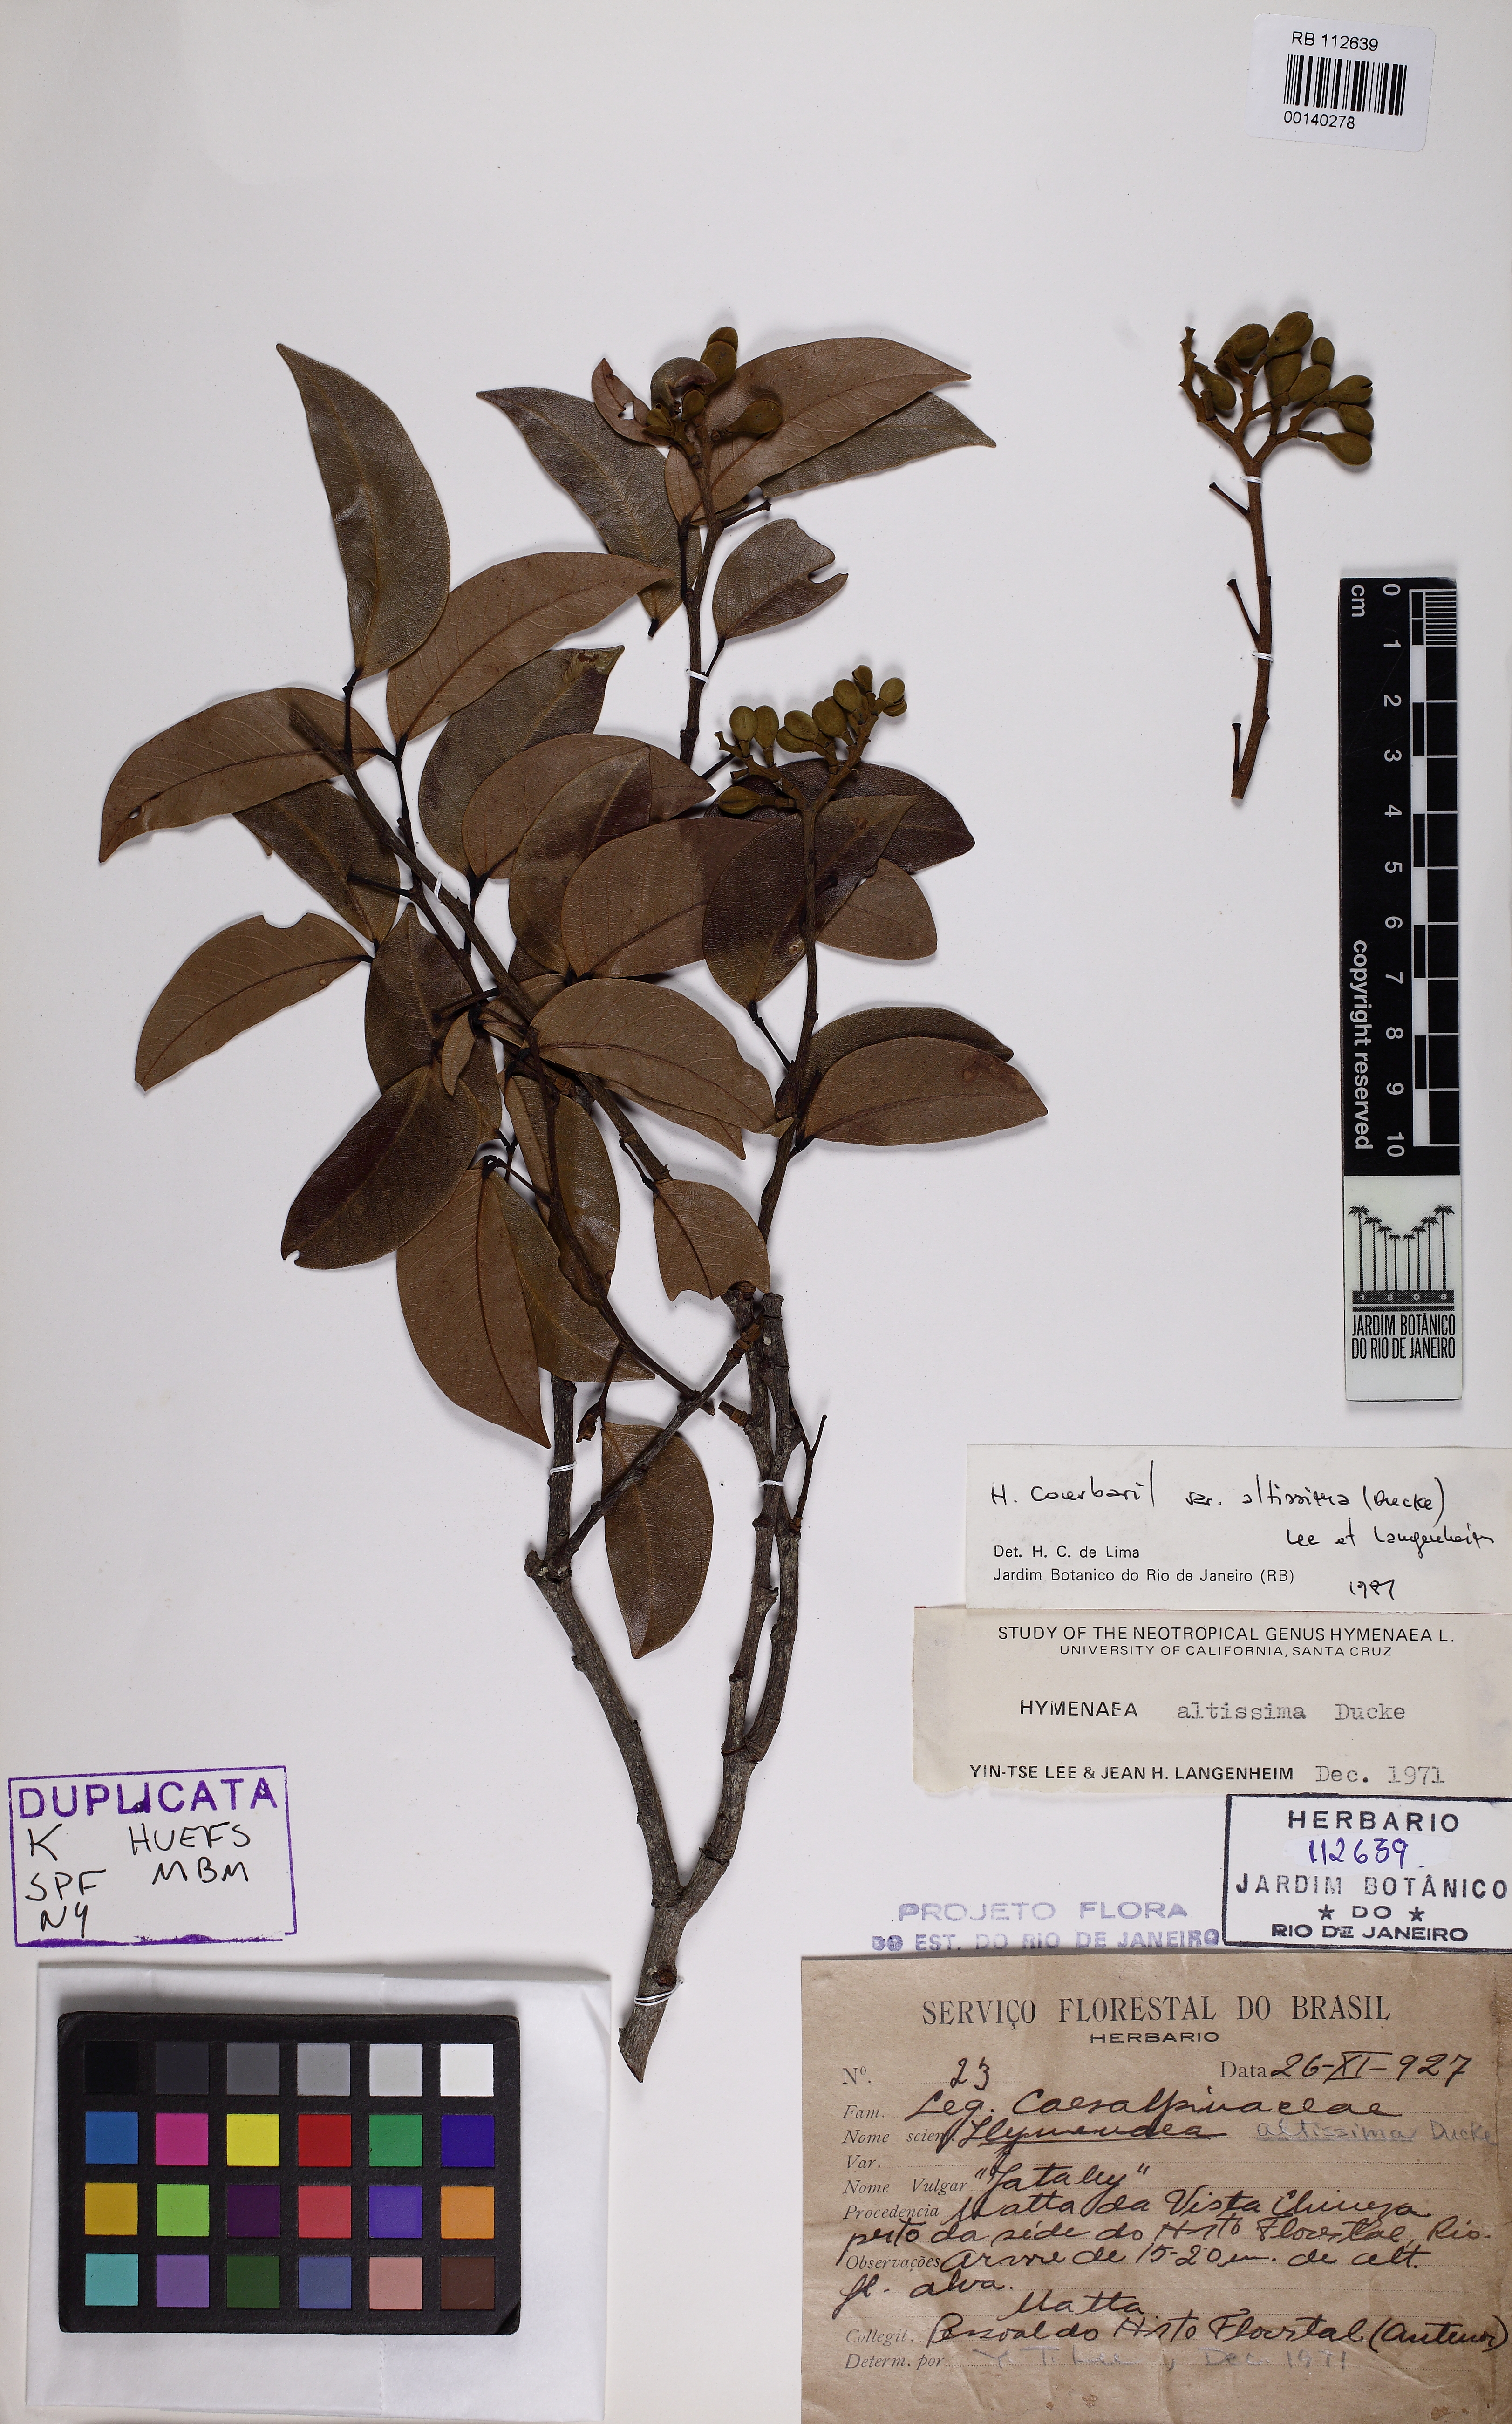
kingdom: Plantae
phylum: Tracheophyta
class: Magnoliopsida
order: Fabales
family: Fabaceae
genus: Hymenaea
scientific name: Hymenaea altissima
